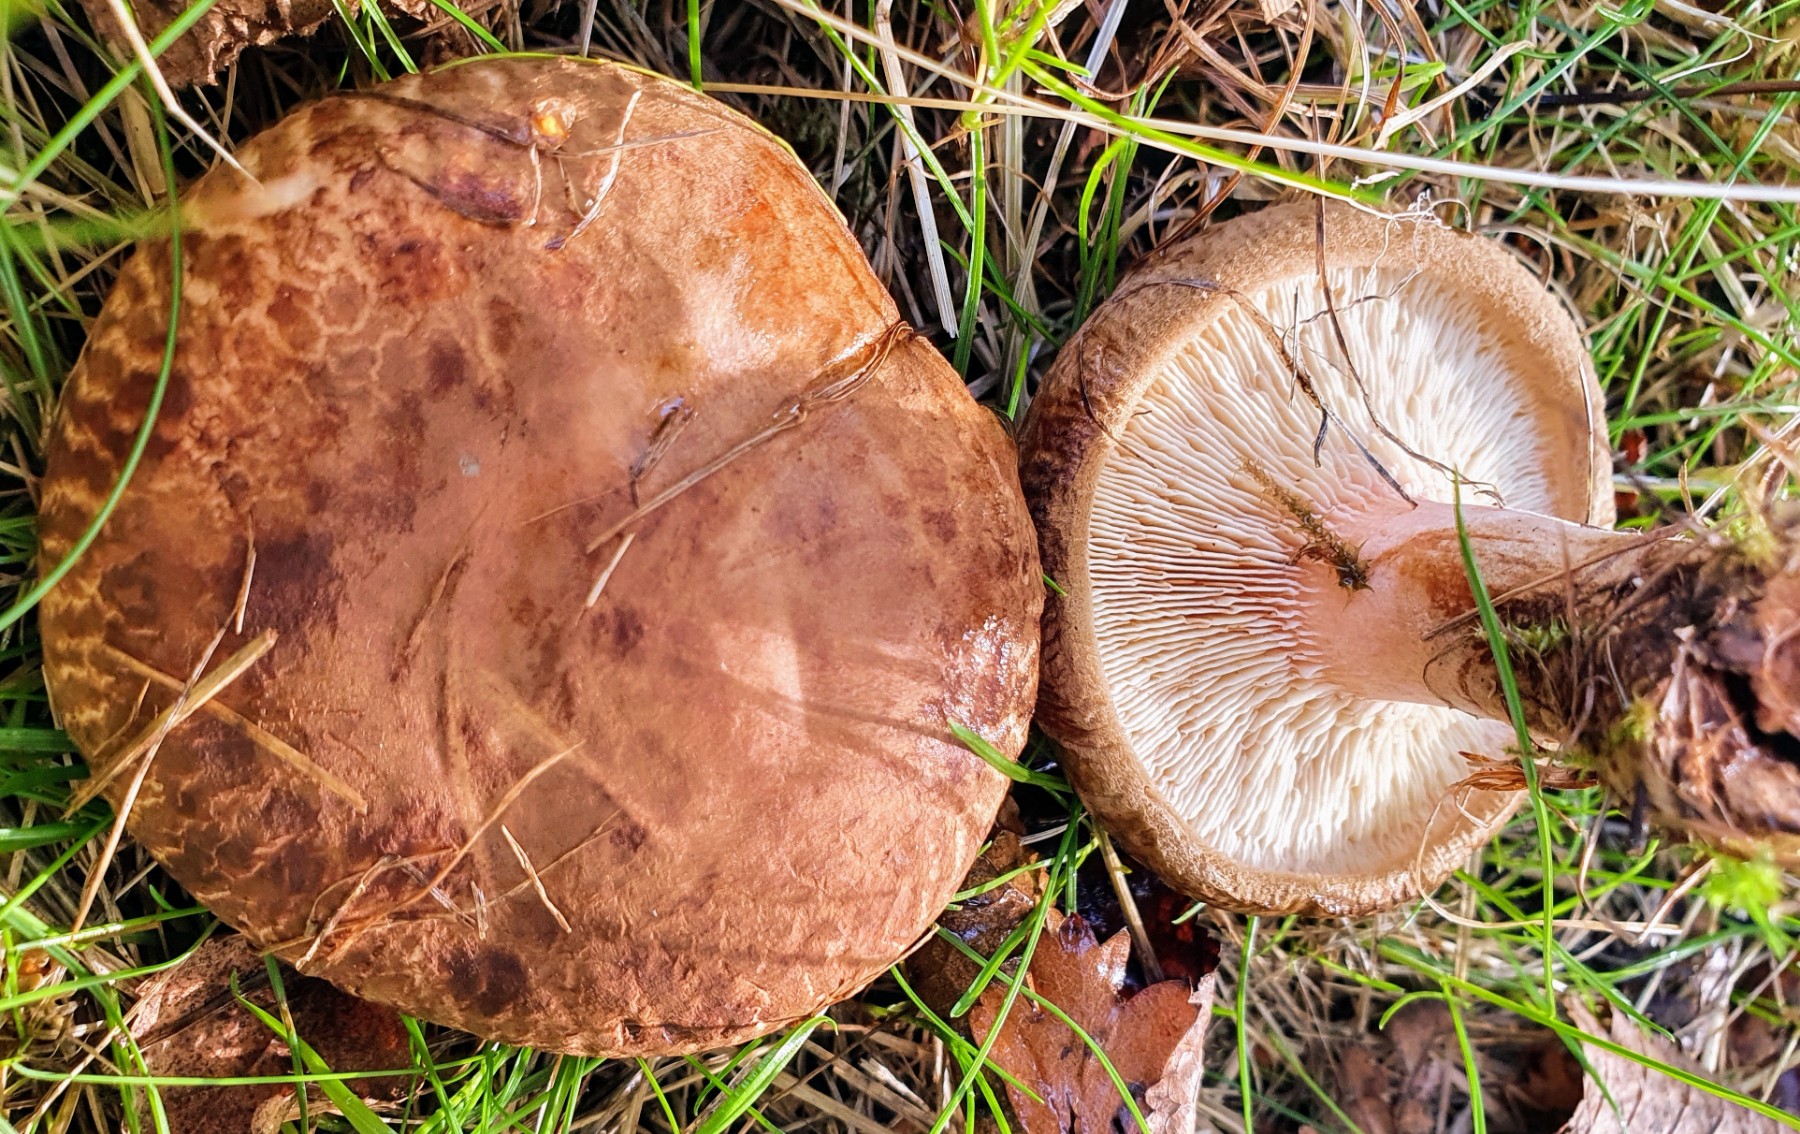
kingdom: Fungi
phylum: Basidiomycota
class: Agaricomycetes
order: Boletales
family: Paxillaceae
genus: Paxillus
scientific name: Paxillus obscurisporus
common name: mahognisporet netbladhat
